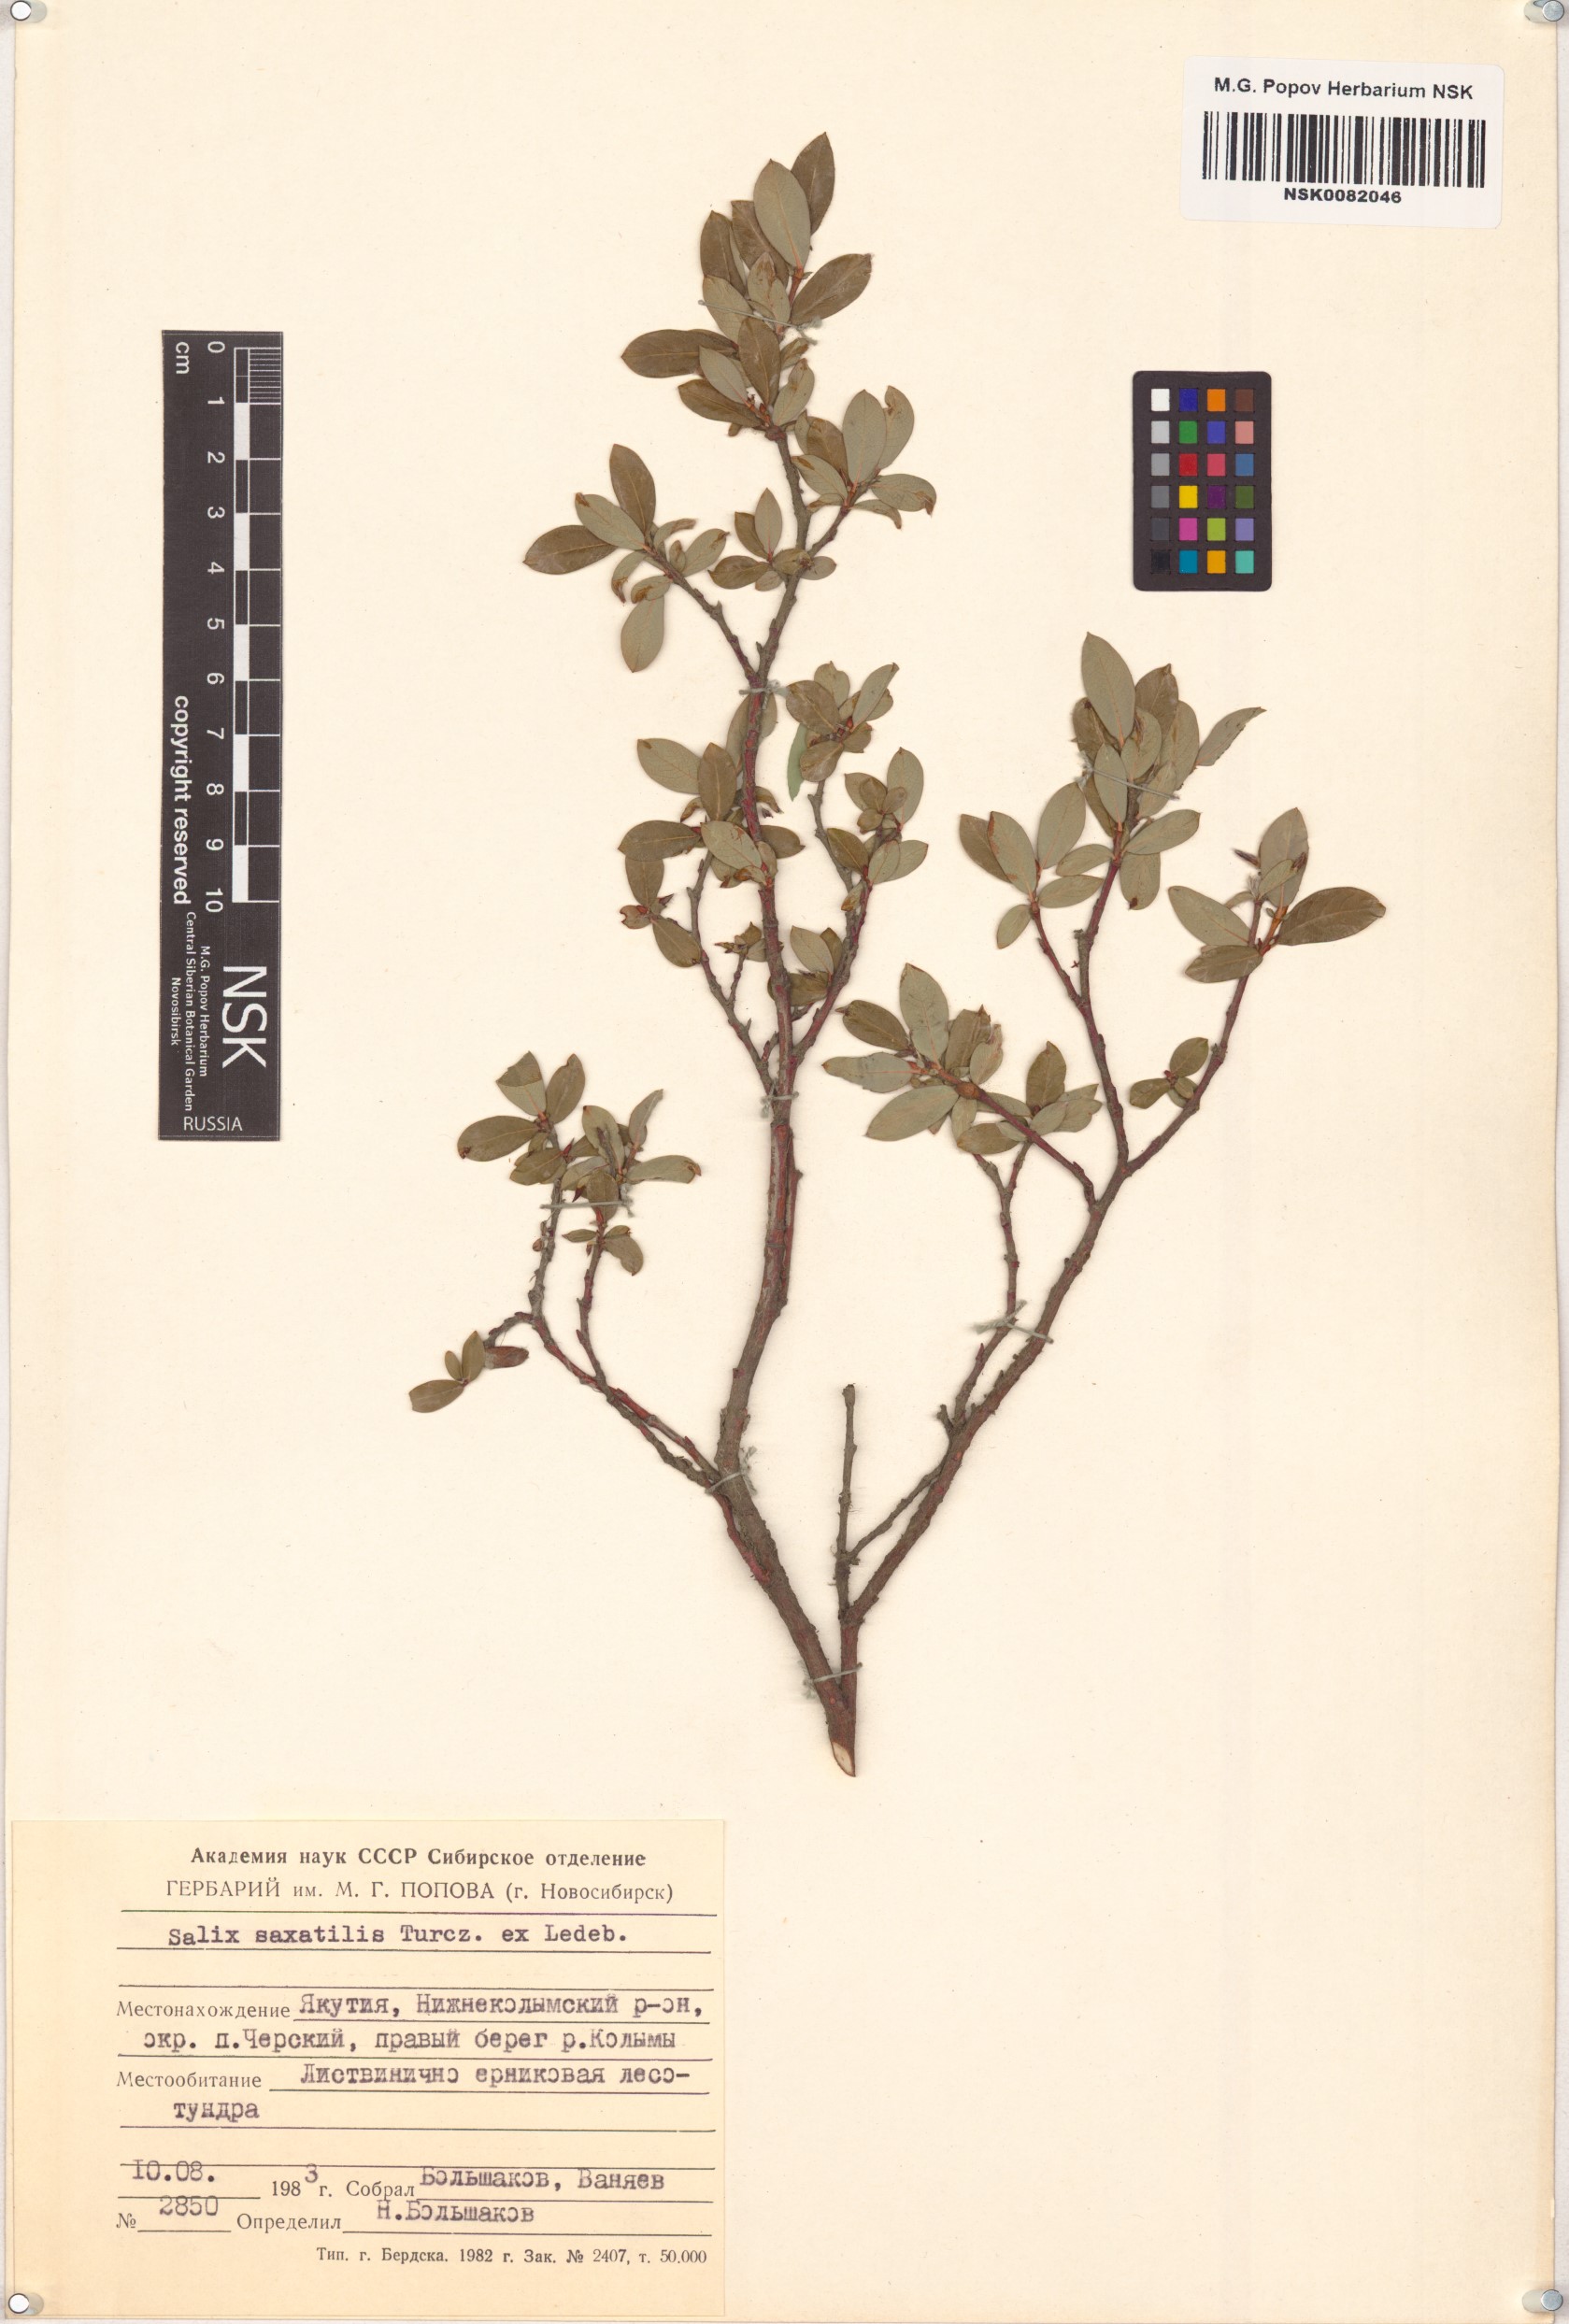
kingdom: Plantae
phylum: Tracheophyta
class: Magnoliopsida
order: Malpighiales
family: Salicaceae
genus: Salix
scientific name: Salix saxatilis
